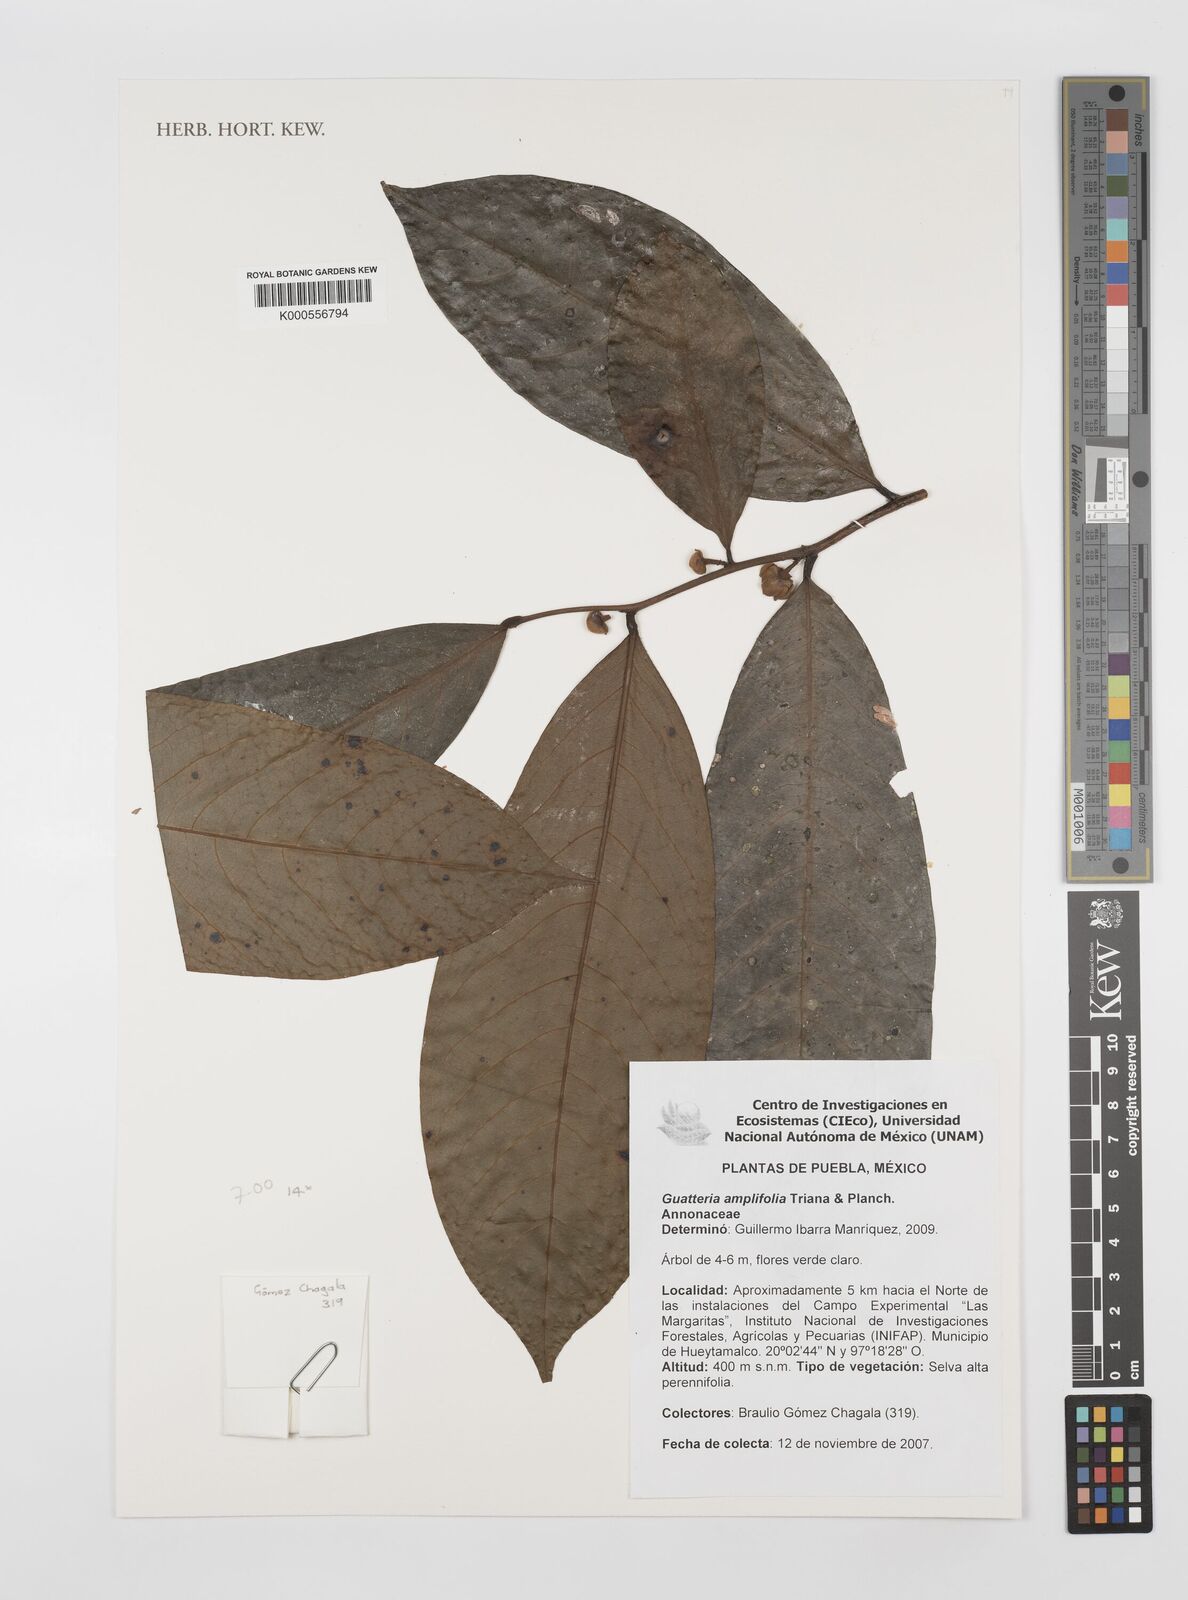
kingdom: Plantae
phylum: Tracheophyta
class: Magnoliopsida
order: Magnoliales
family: Annonaceae
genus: Guatteria
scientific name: Guatteria amplifolia
